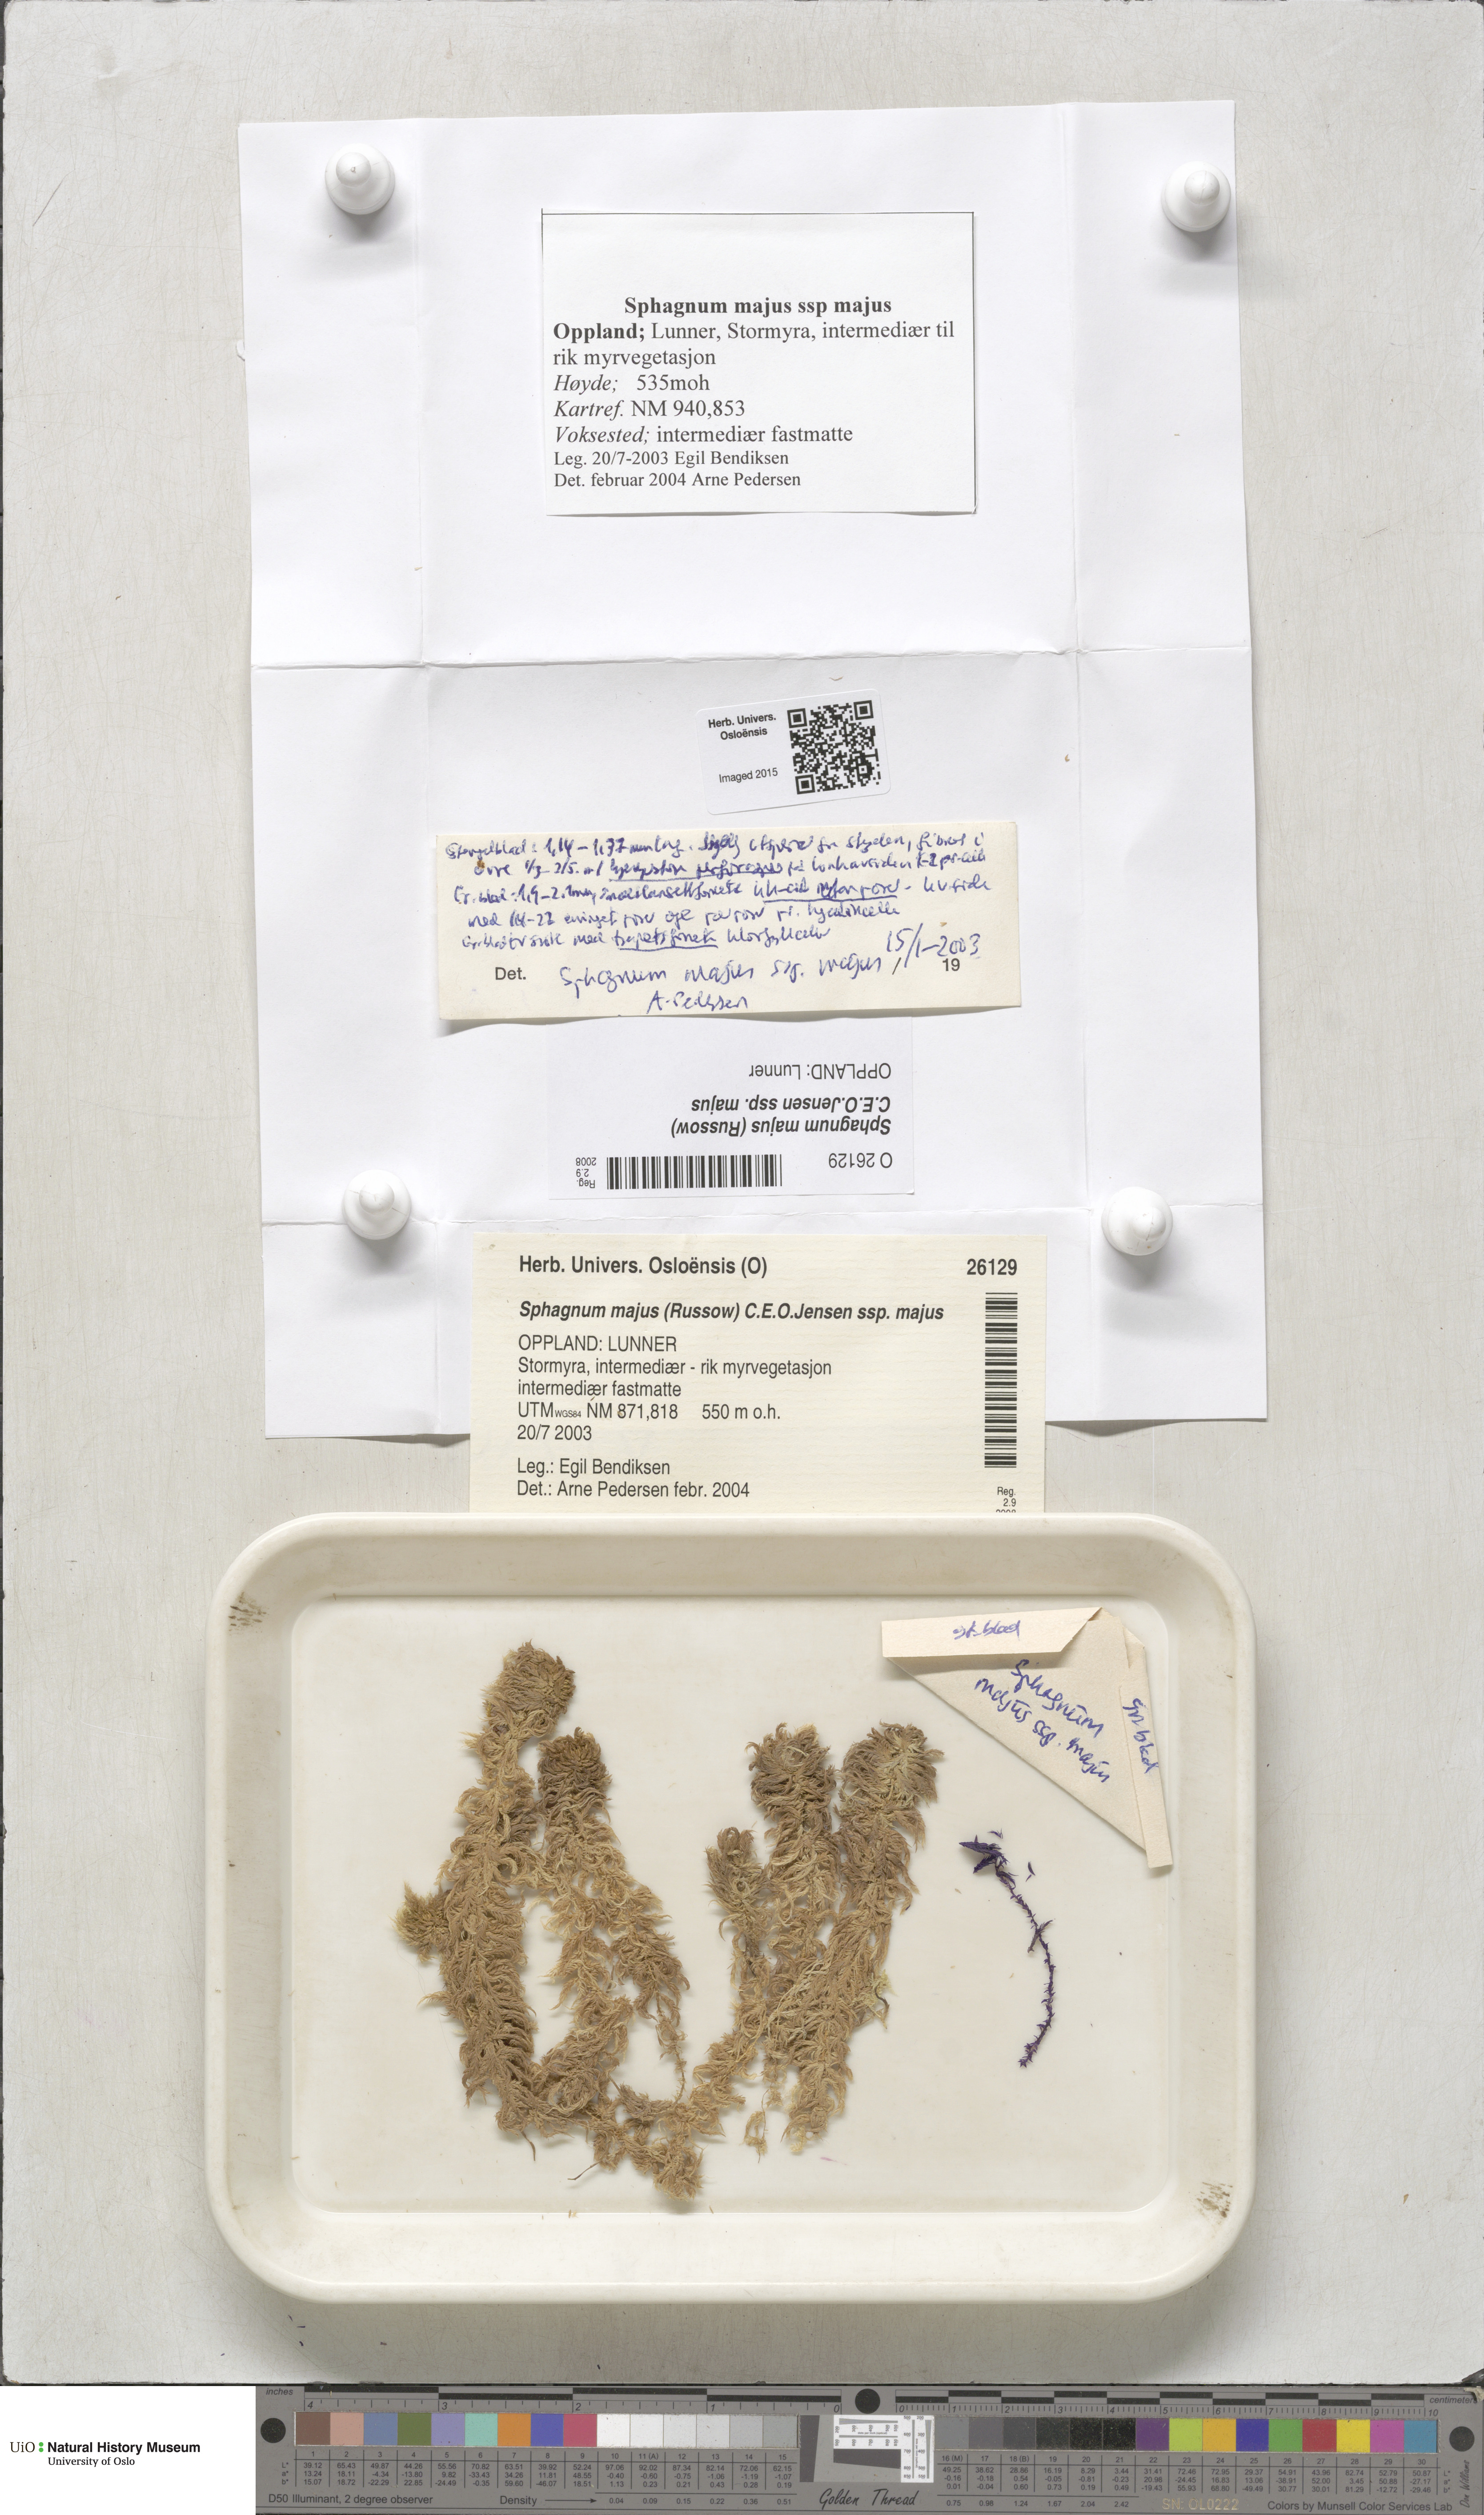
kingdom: Plantae
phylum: Bryophyta
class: Sphagnopsida
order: Sphagnales
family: Sphagnaceae
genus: Sphagnum
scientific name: Sphagnum majus
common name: Olive bog-moss
